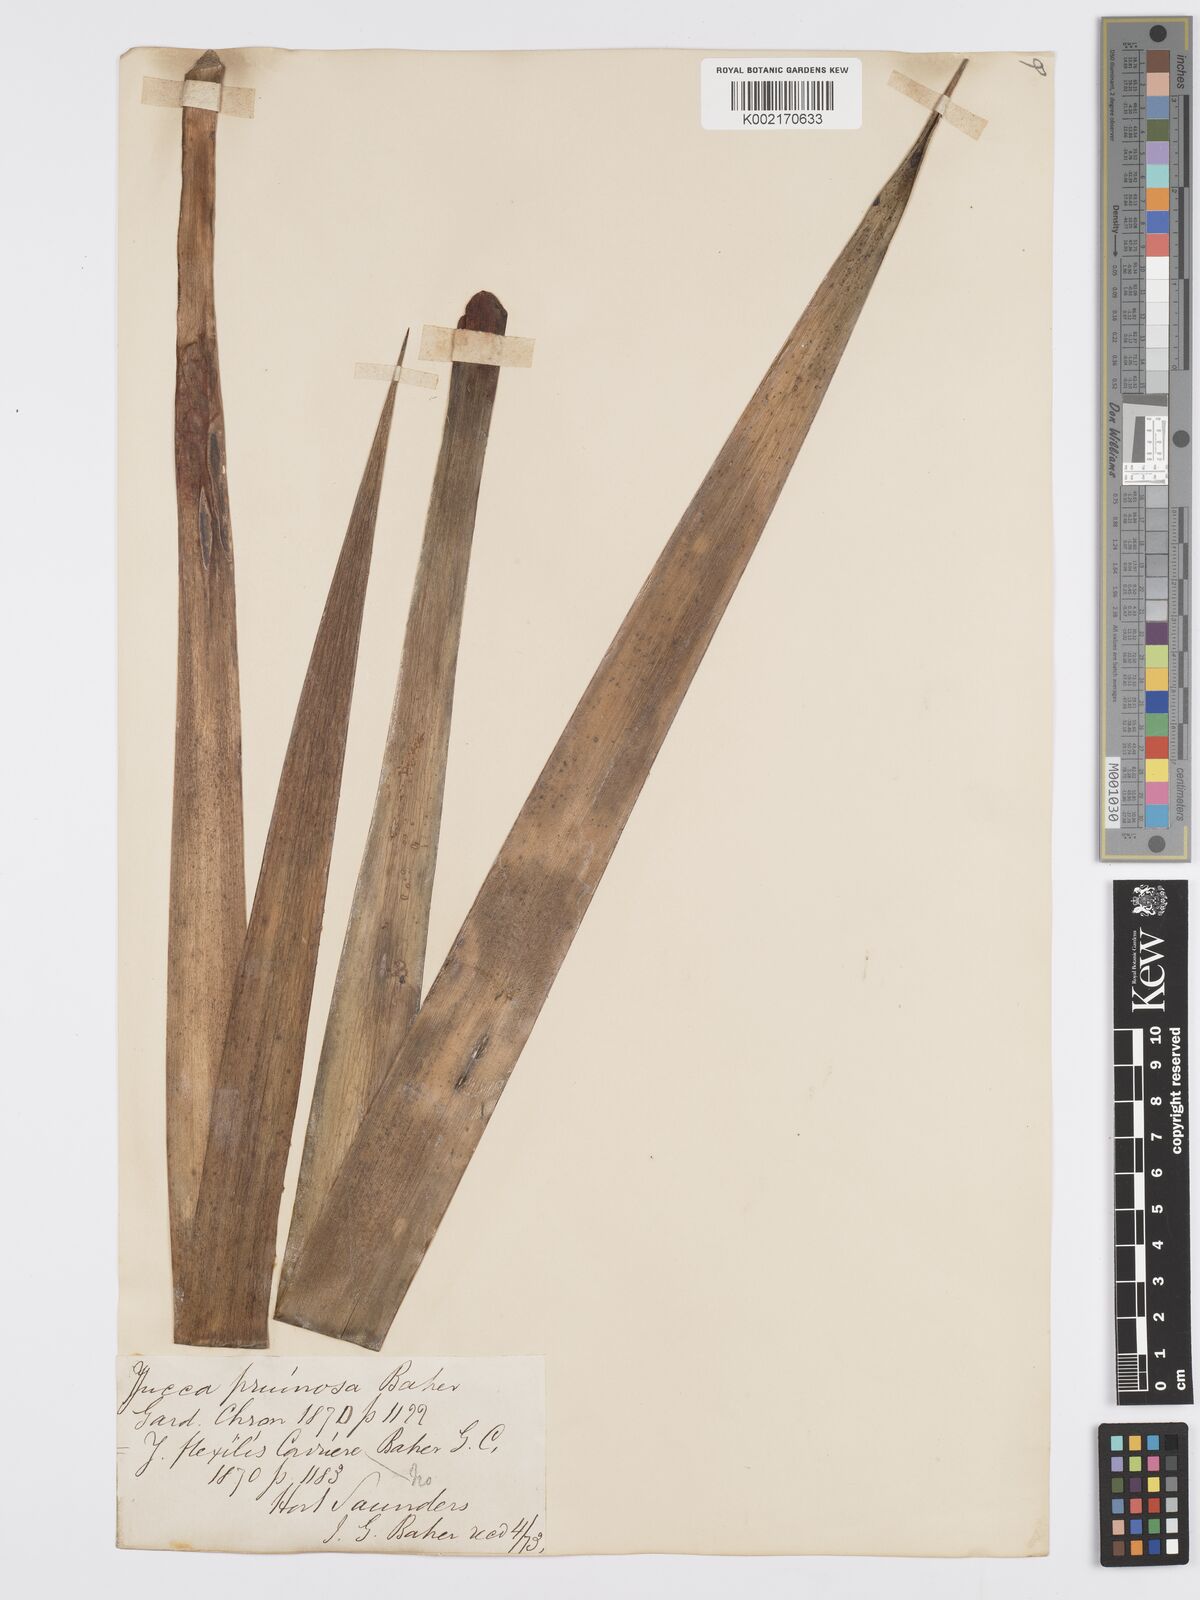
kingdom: Plantae
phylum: Tracheophyta
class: Liliopsida
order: Asparagales
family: Asparagaceae
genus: Yucca
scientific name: Yucca gloriosa
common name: Spanish-dagger
